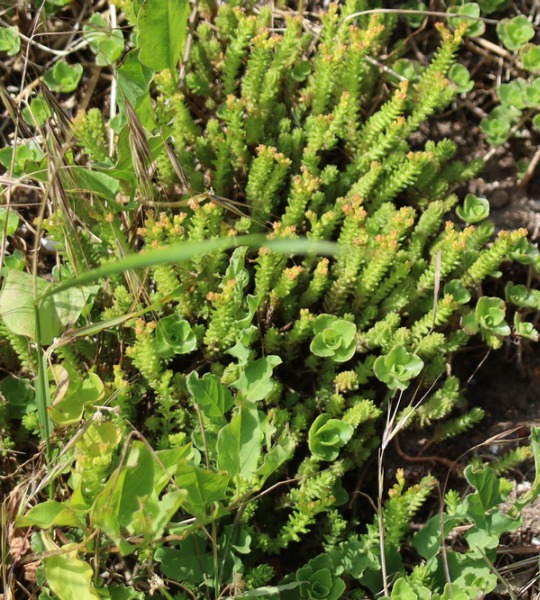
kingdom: Plantae
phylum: Tracheophyta
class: Magnoliopsida
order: Saxifragales
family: Crassulaceae
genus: Sedum
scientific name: Sedum sexangulare
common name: Seksradet stenurt
